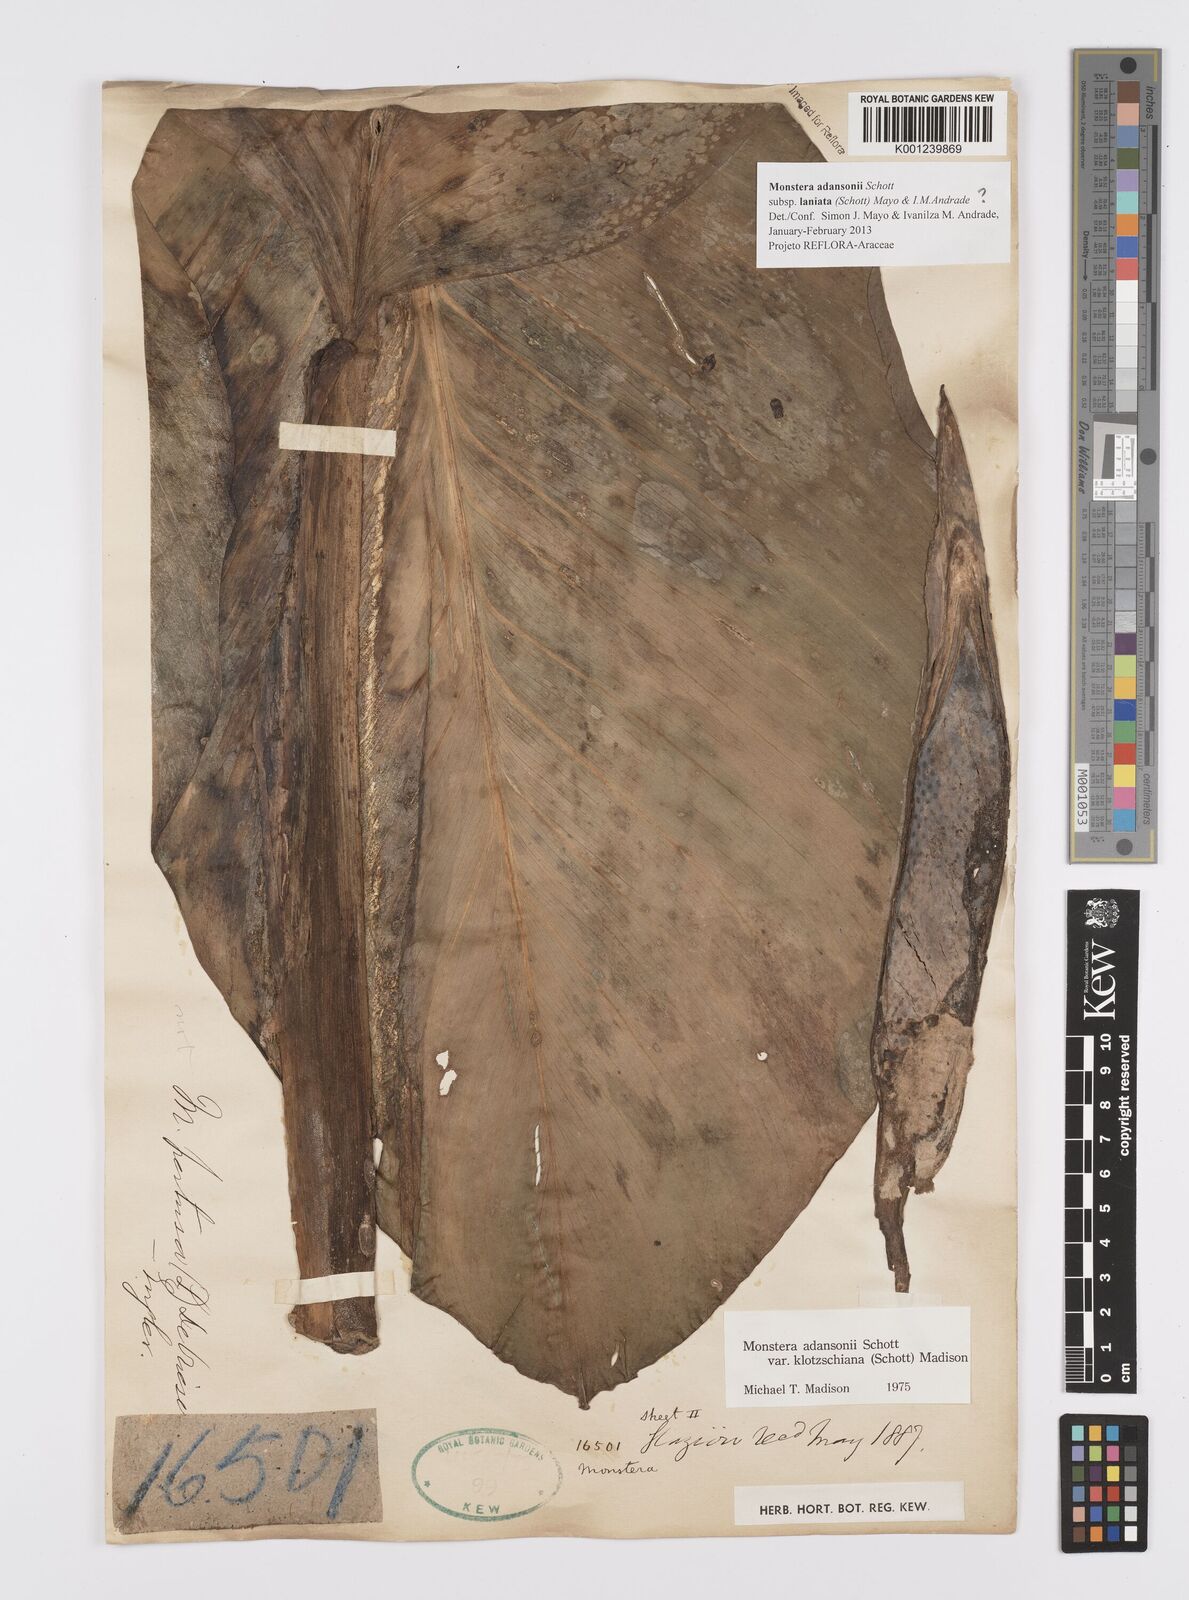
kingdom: Plantae
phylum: Tracheophyta
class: Liliopsida
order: Alismatales
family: Araceae
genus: Monstera
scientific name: Monstera adansonii
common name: Tarovine
